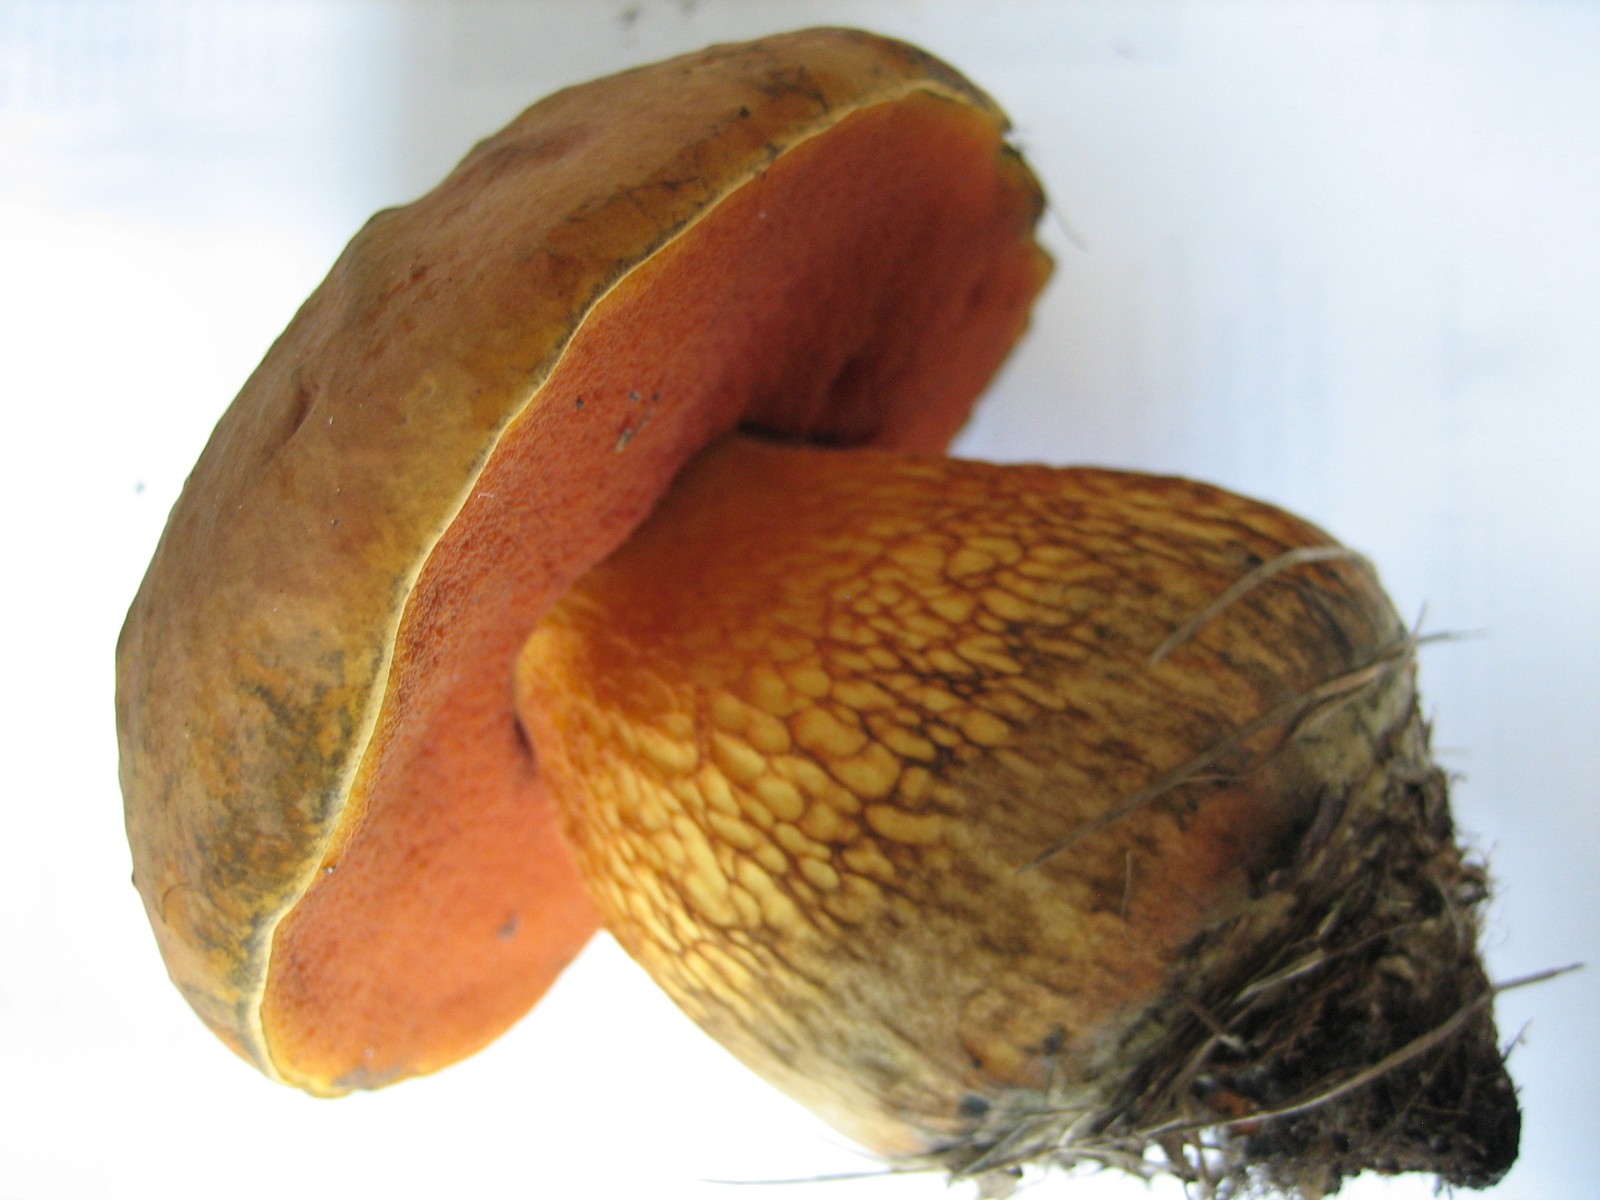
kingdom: Fungi
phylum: Basidiomycota
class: Agaricomycetes
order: Boletales
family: Boletaceae
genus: Suillellus
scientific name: Suillellus luridus
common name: netstokket indigorørhat
